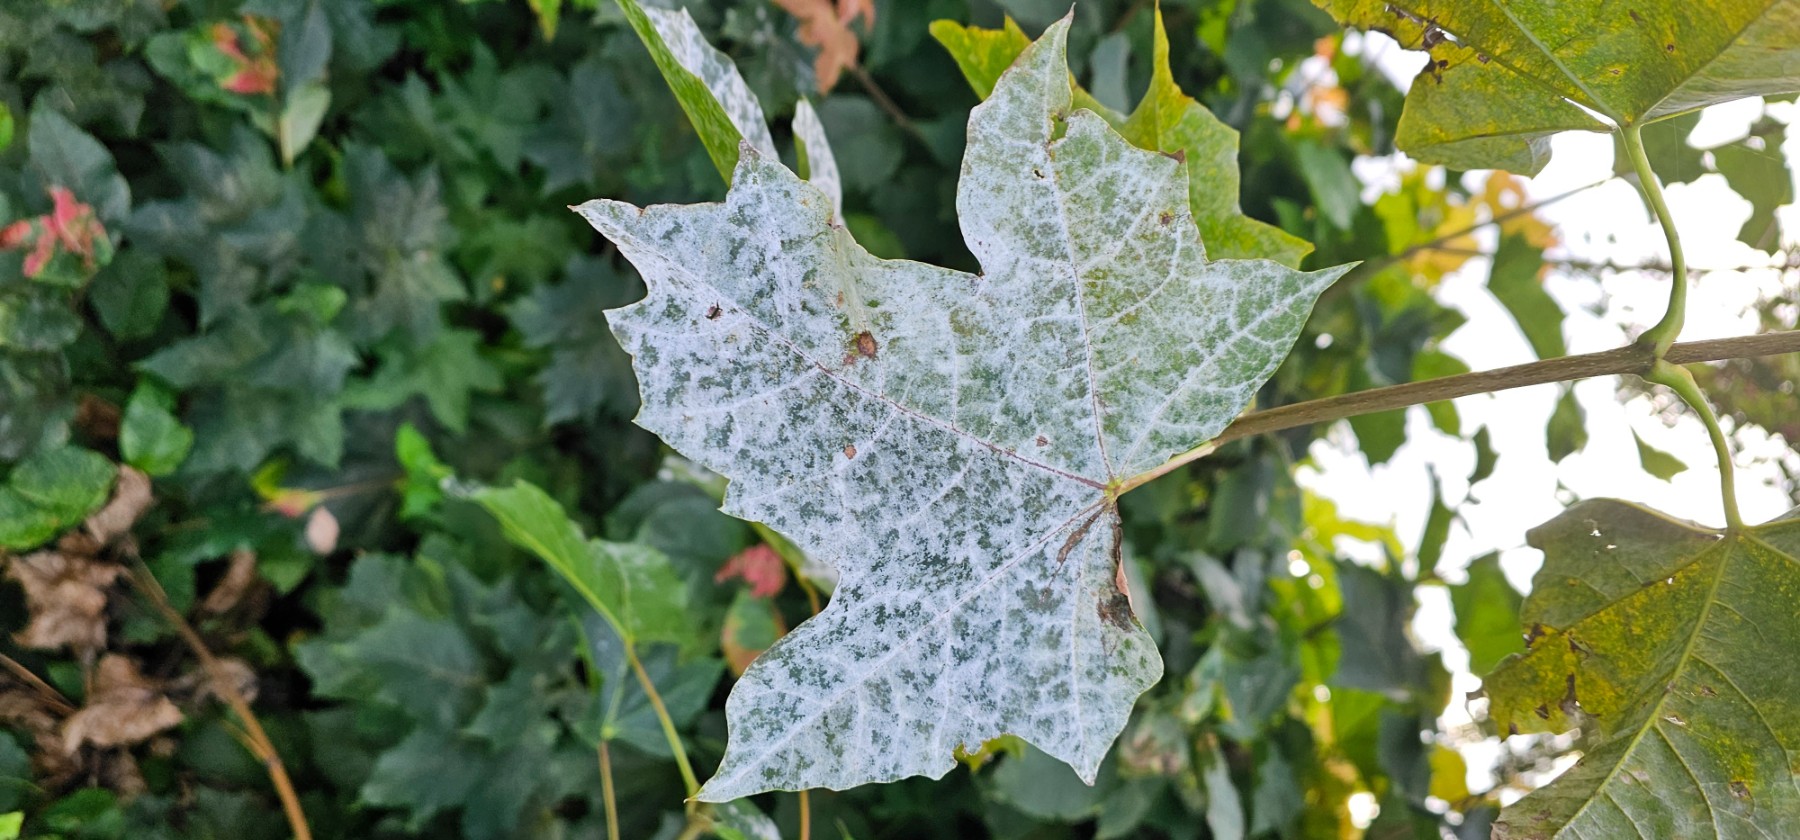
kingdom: Fungi
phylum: Ascomycota
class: Leotiomycetes
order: Helotiales
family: Erysiphaceae
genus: Sawadaea
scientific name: Sawadaea bicornis
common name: Maple mildew
